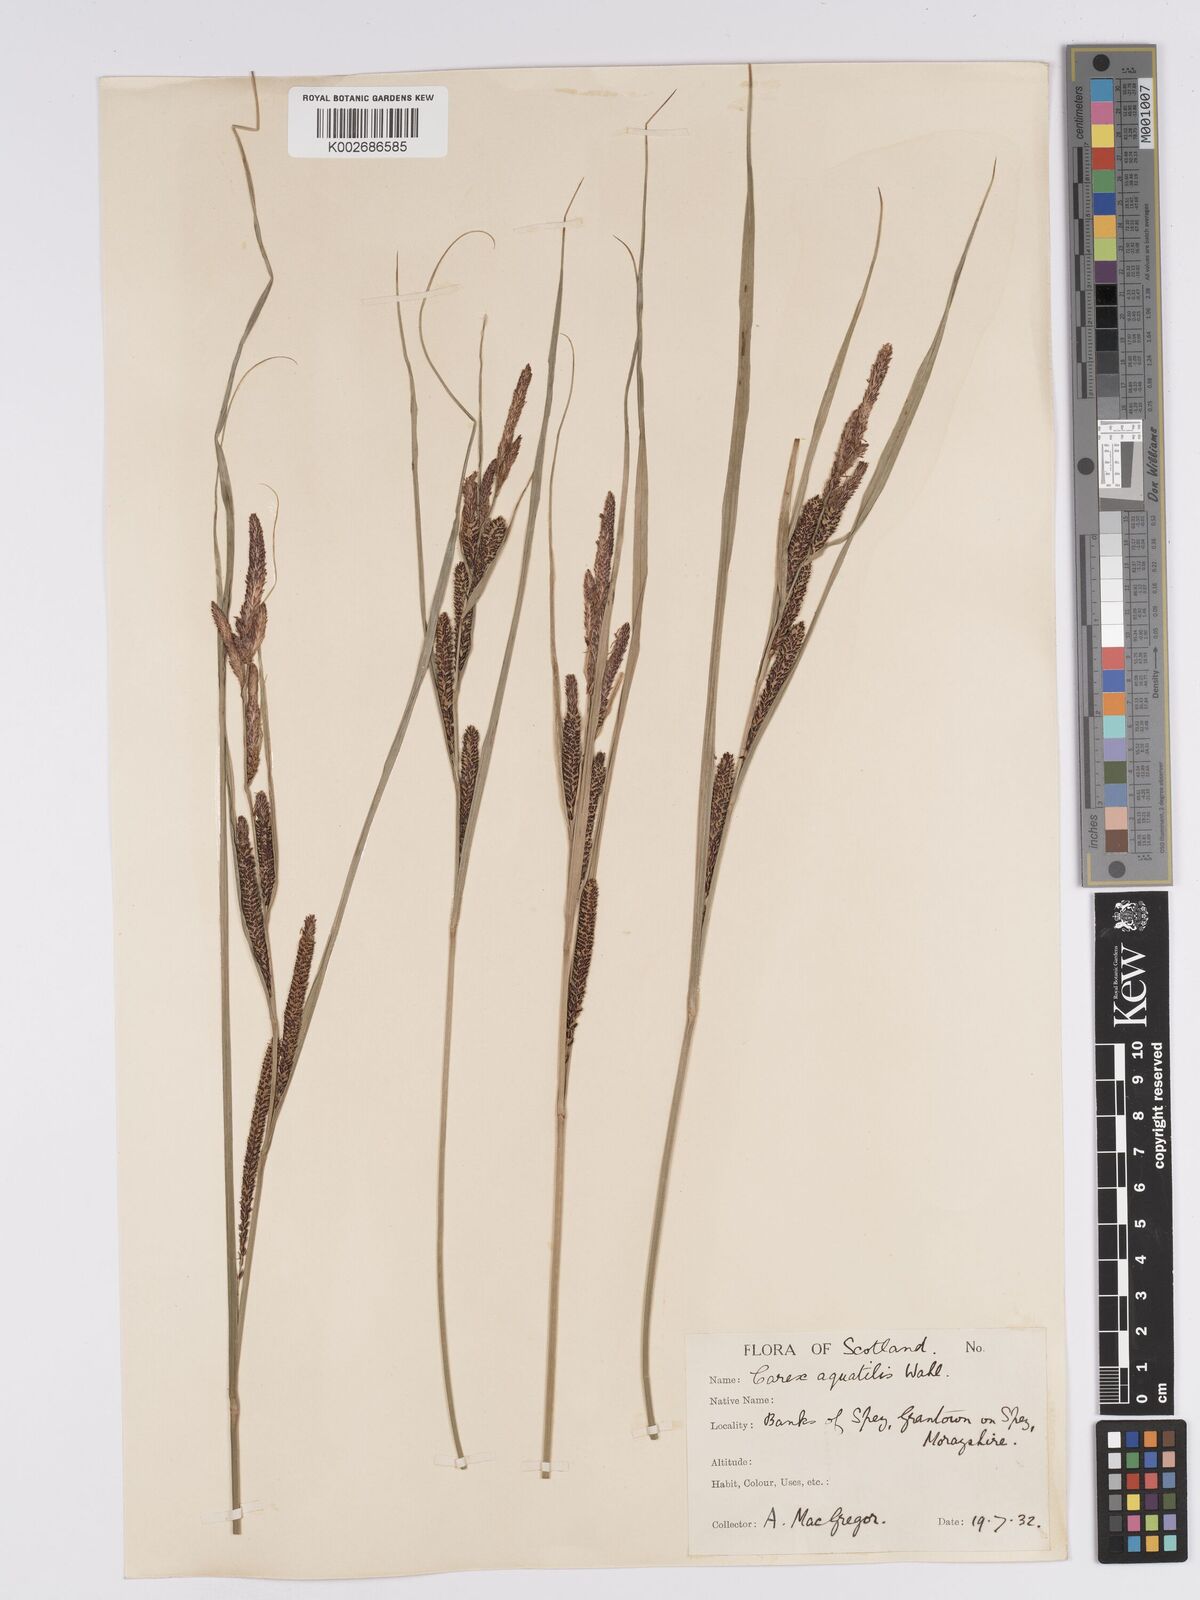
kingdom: Plantae
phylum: Tracheophyta
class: Liliopsida
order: Poales
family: Cyperaceae
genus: Carex
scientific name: Carex aquatilis
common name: Water sedge
